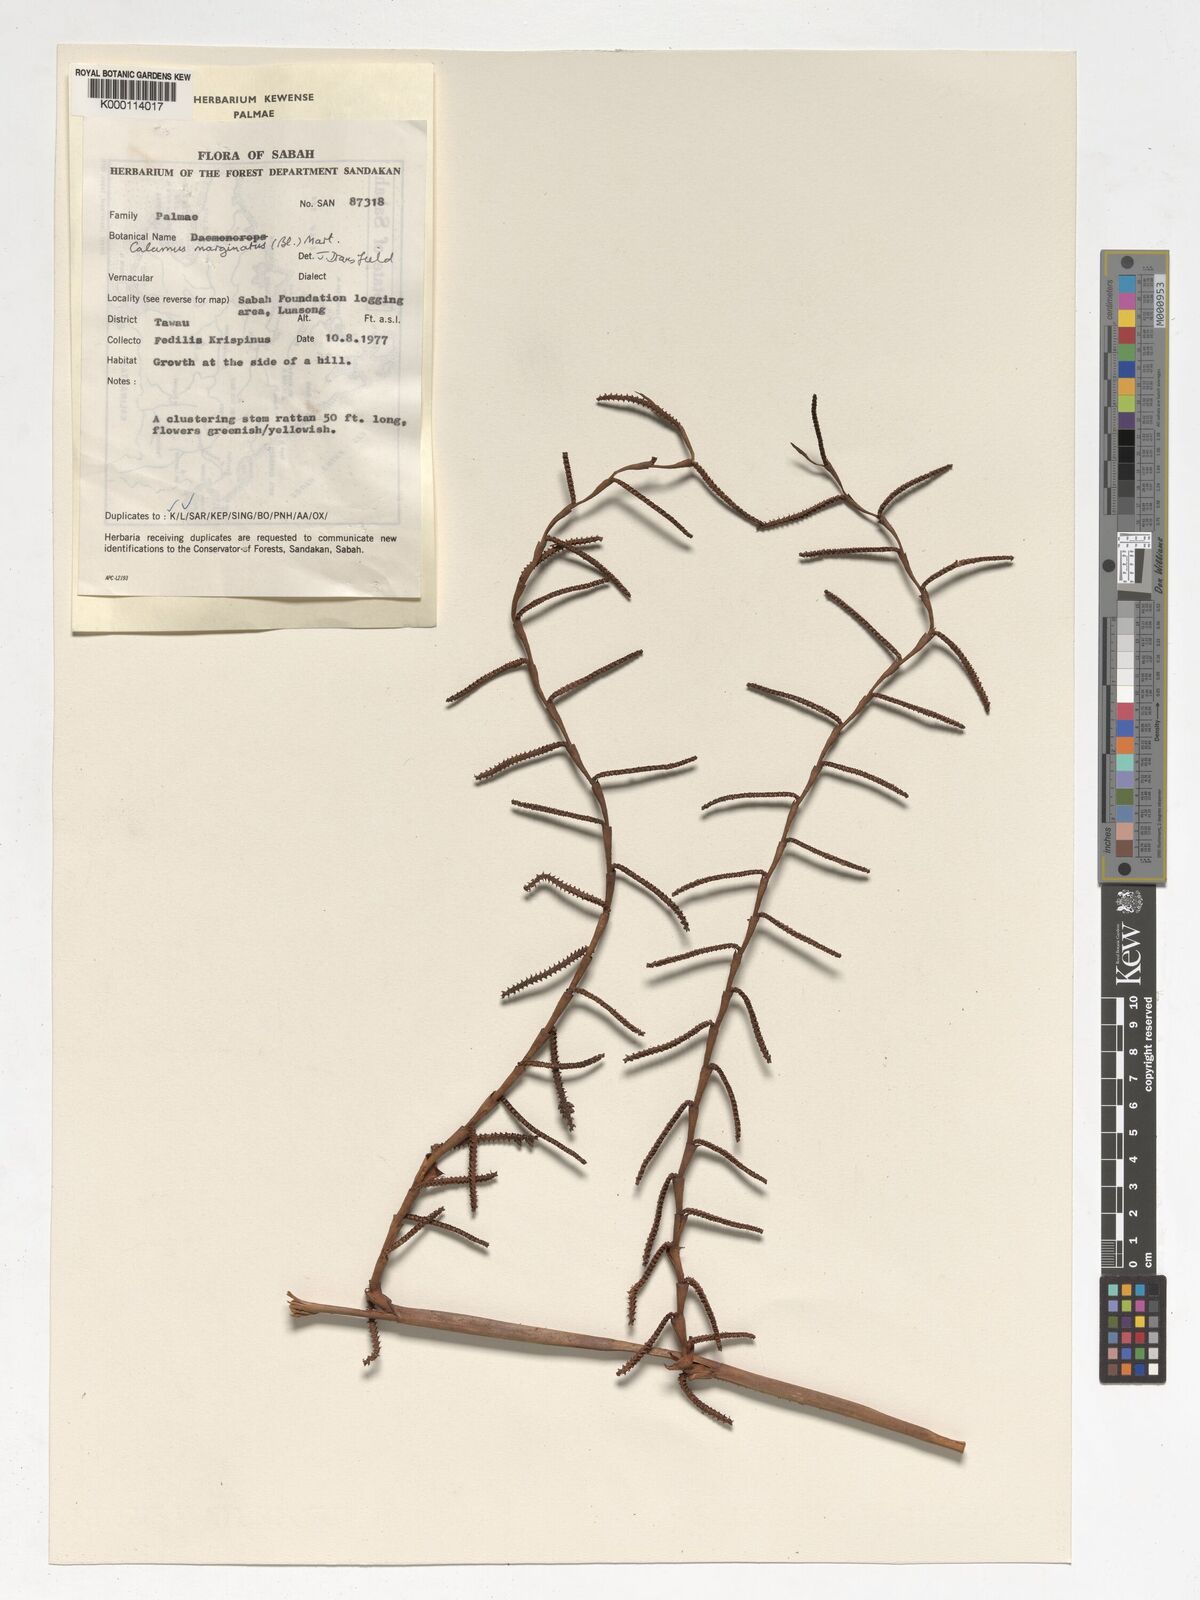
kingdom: Plantae
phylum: Tracheophyta
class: Liliopsida
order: Arecales
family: Arecaceae
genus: Calamus
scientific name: Calamus
